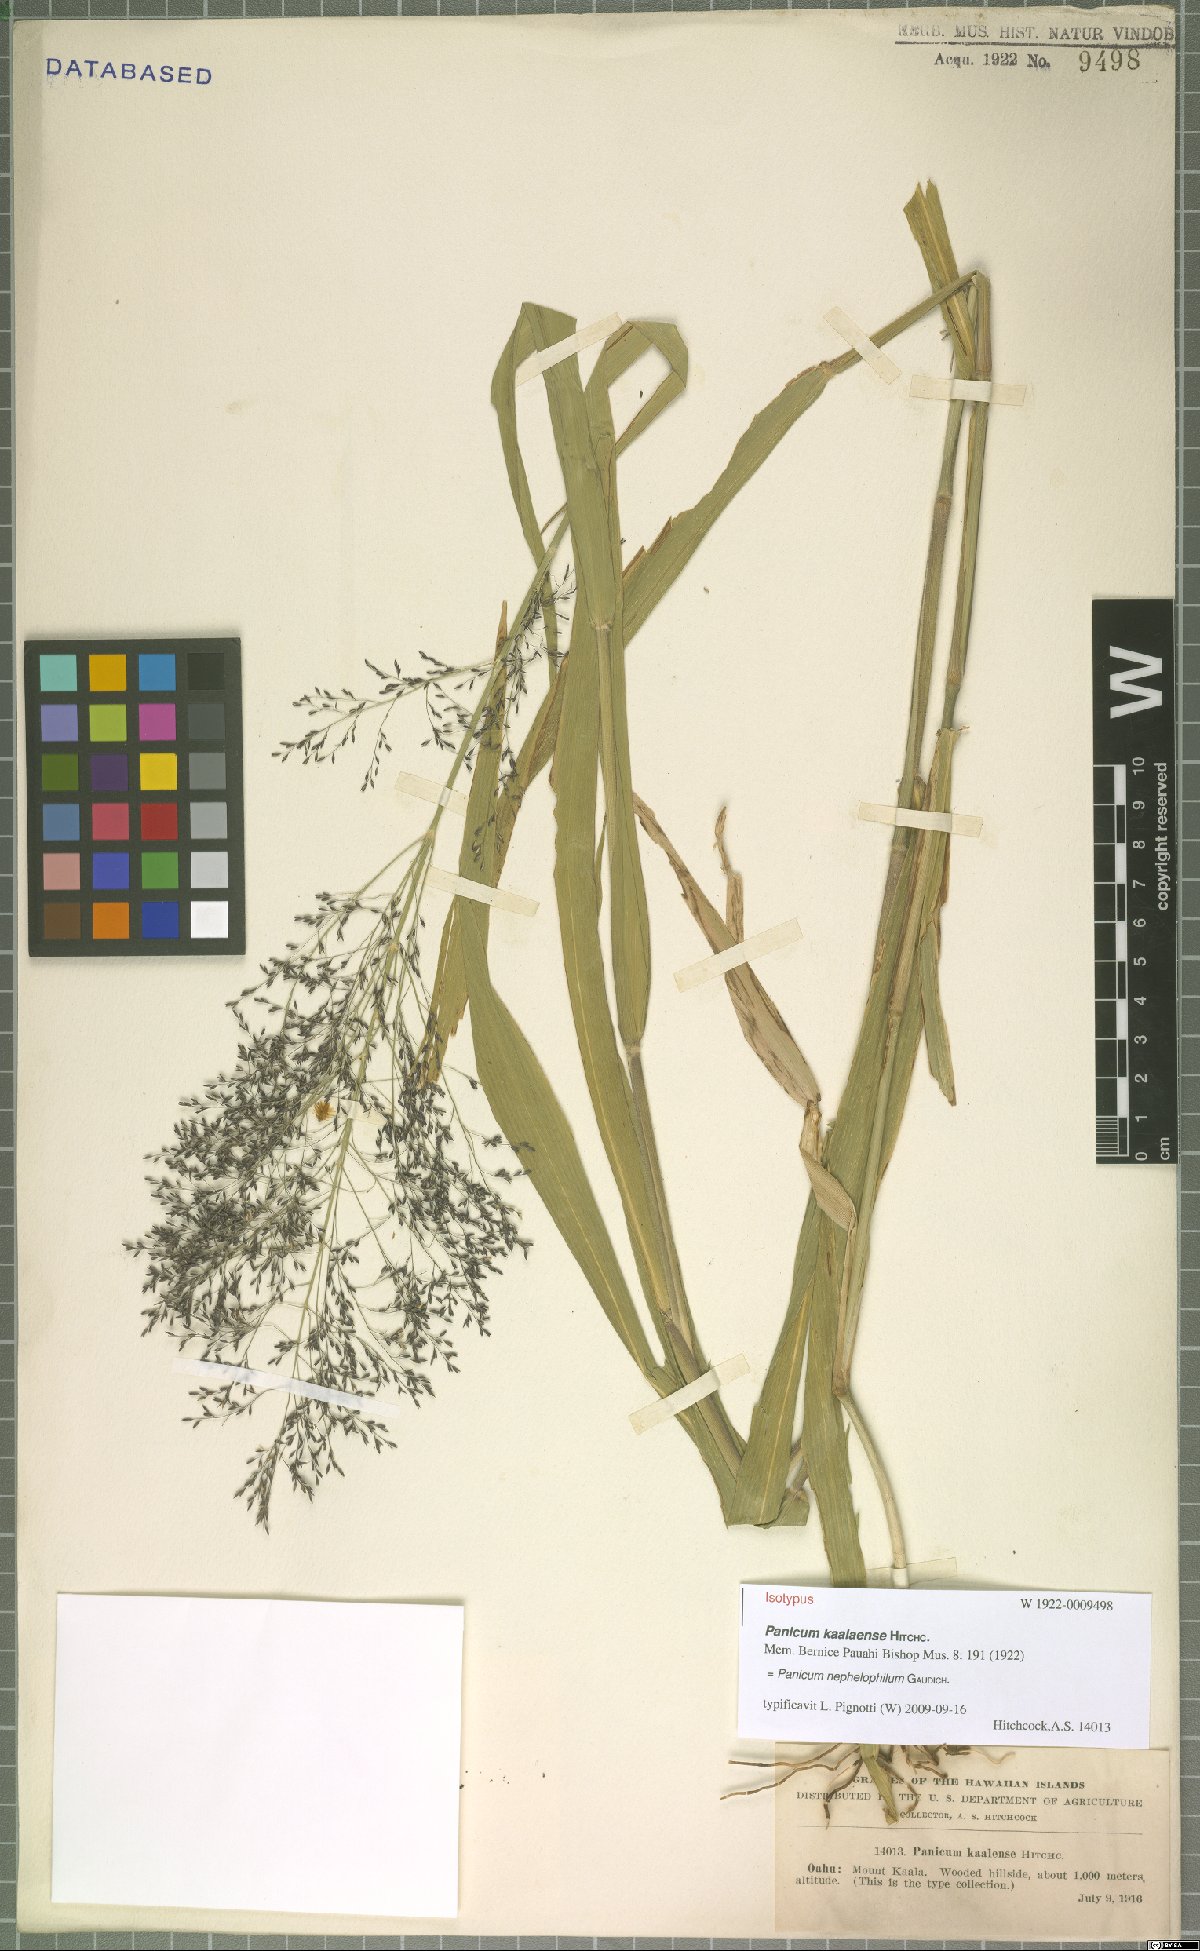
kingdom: Plantae
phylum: Tracheophyta
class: Liliopsida
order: Poales
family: Poaceae
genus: Panicum
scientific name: Panicum nephelophilum
